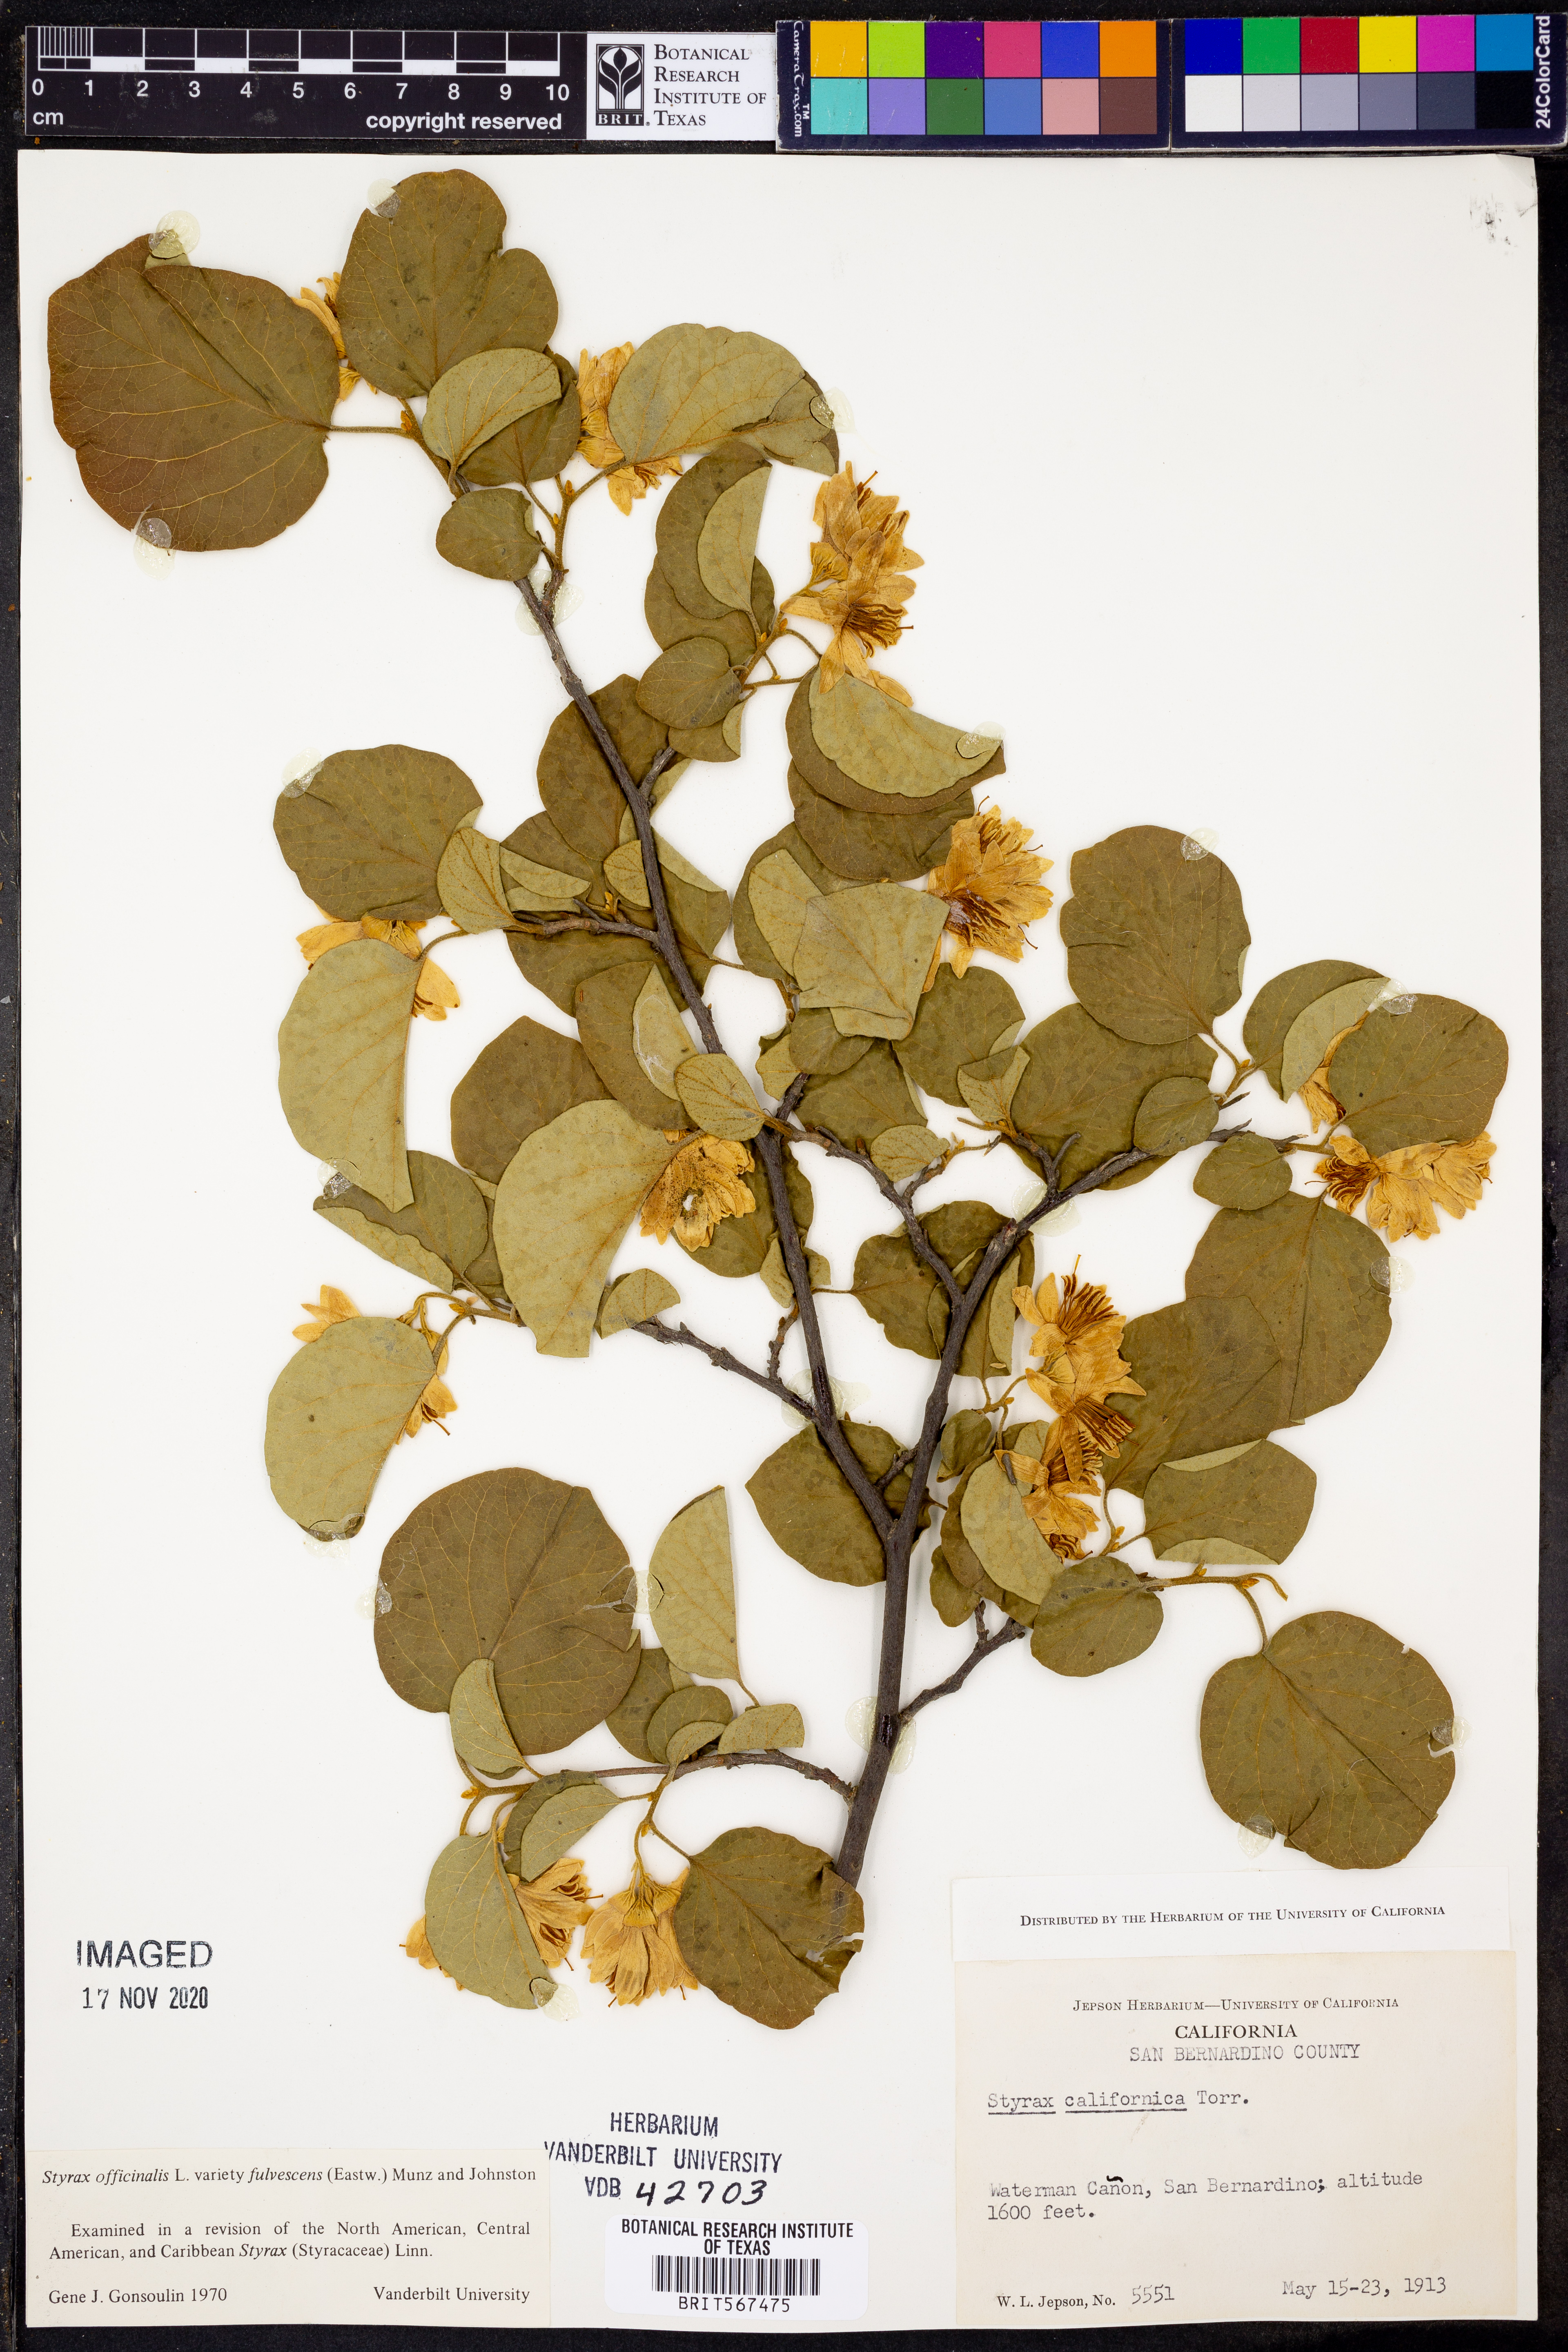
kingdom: Plantae
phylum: Tracheophyta
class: Magnoliopsida
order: Ericales
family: Styracaceae
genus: Styrax
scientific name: Styrax redivivus
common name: California styrax
